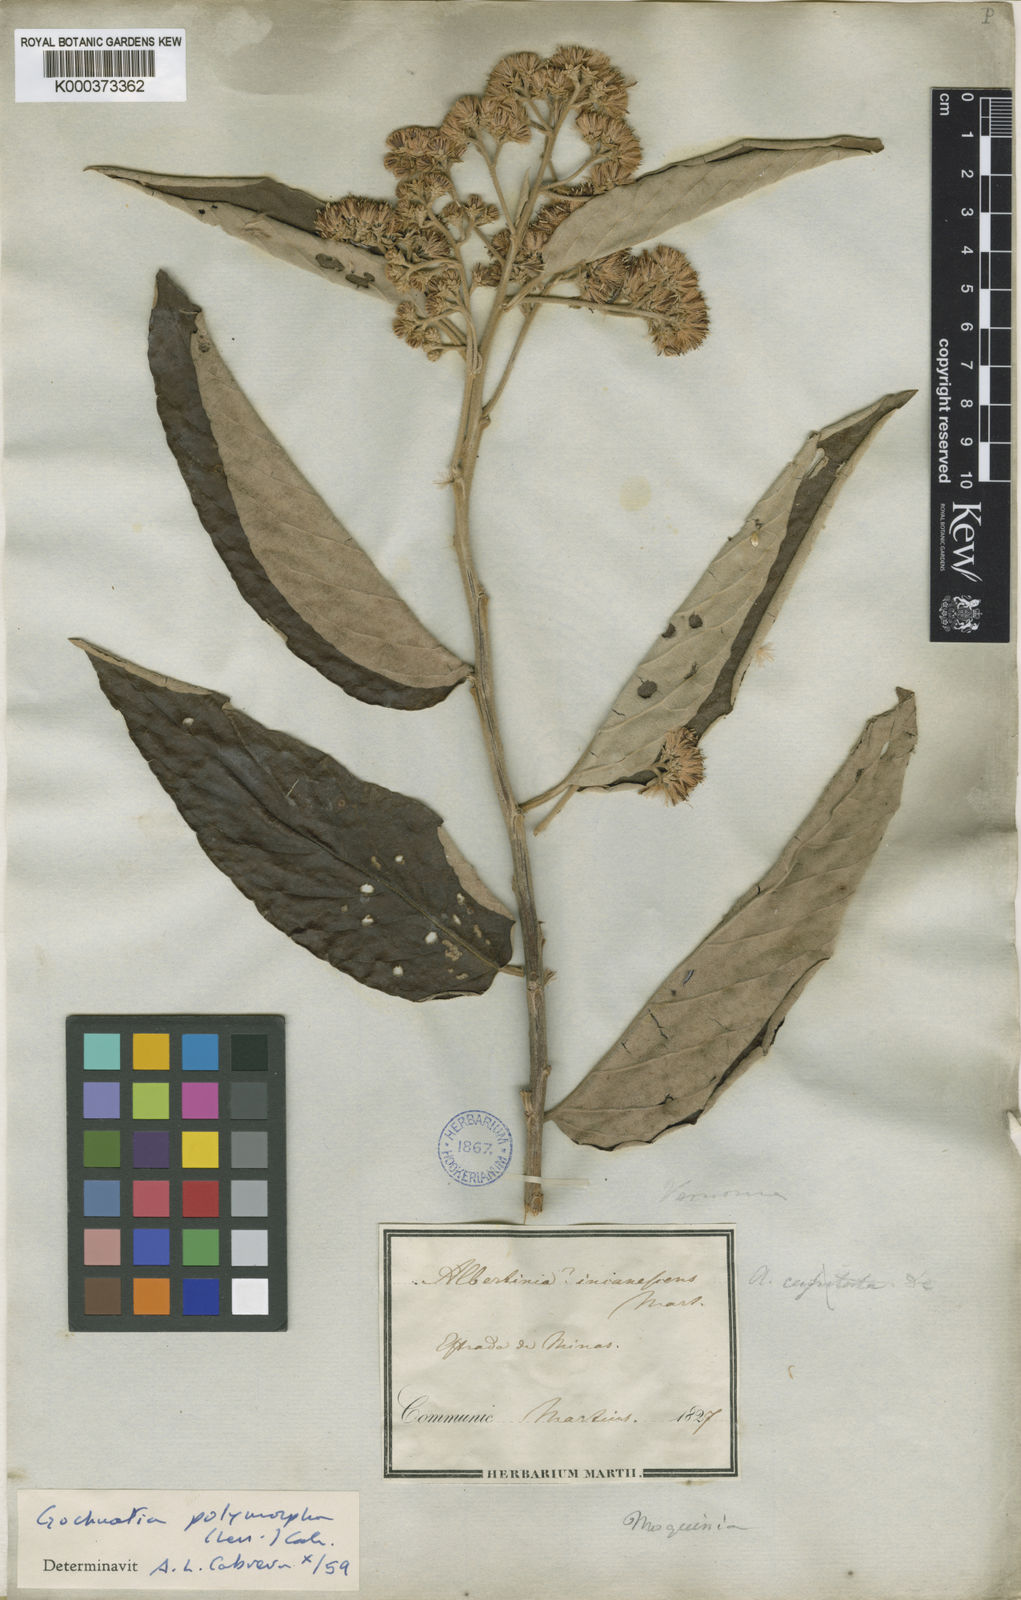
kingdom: Plantae
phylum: Tracheophyta
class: Magnoliopsida
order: Asterales
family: Asteraceae
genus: Moquiniastrum
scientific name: Moquiniastrum polymorphum
